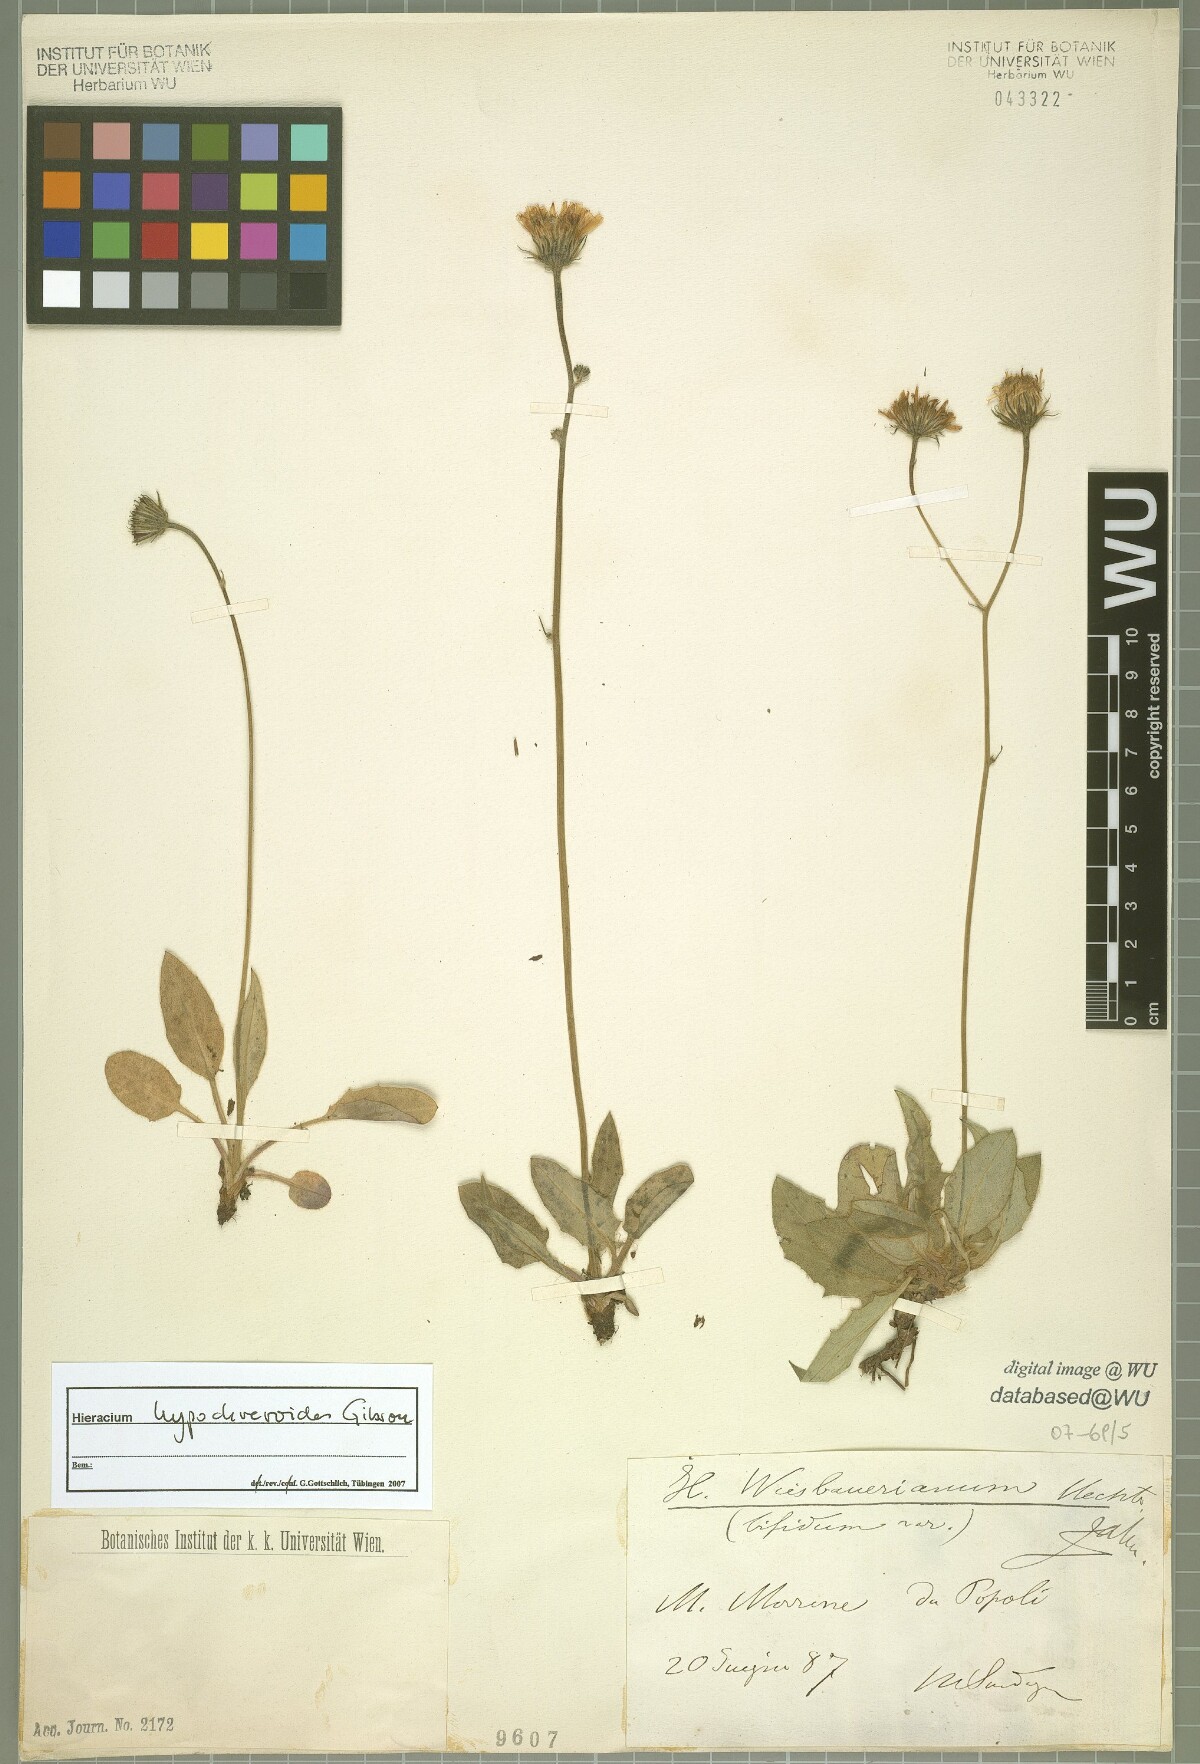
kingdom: Plantae
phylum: Tracheophyta
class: Magnoliopsida
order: Asterales
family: Asteraceae
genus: Hieracium
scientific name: Hieracium hypochoeroides
